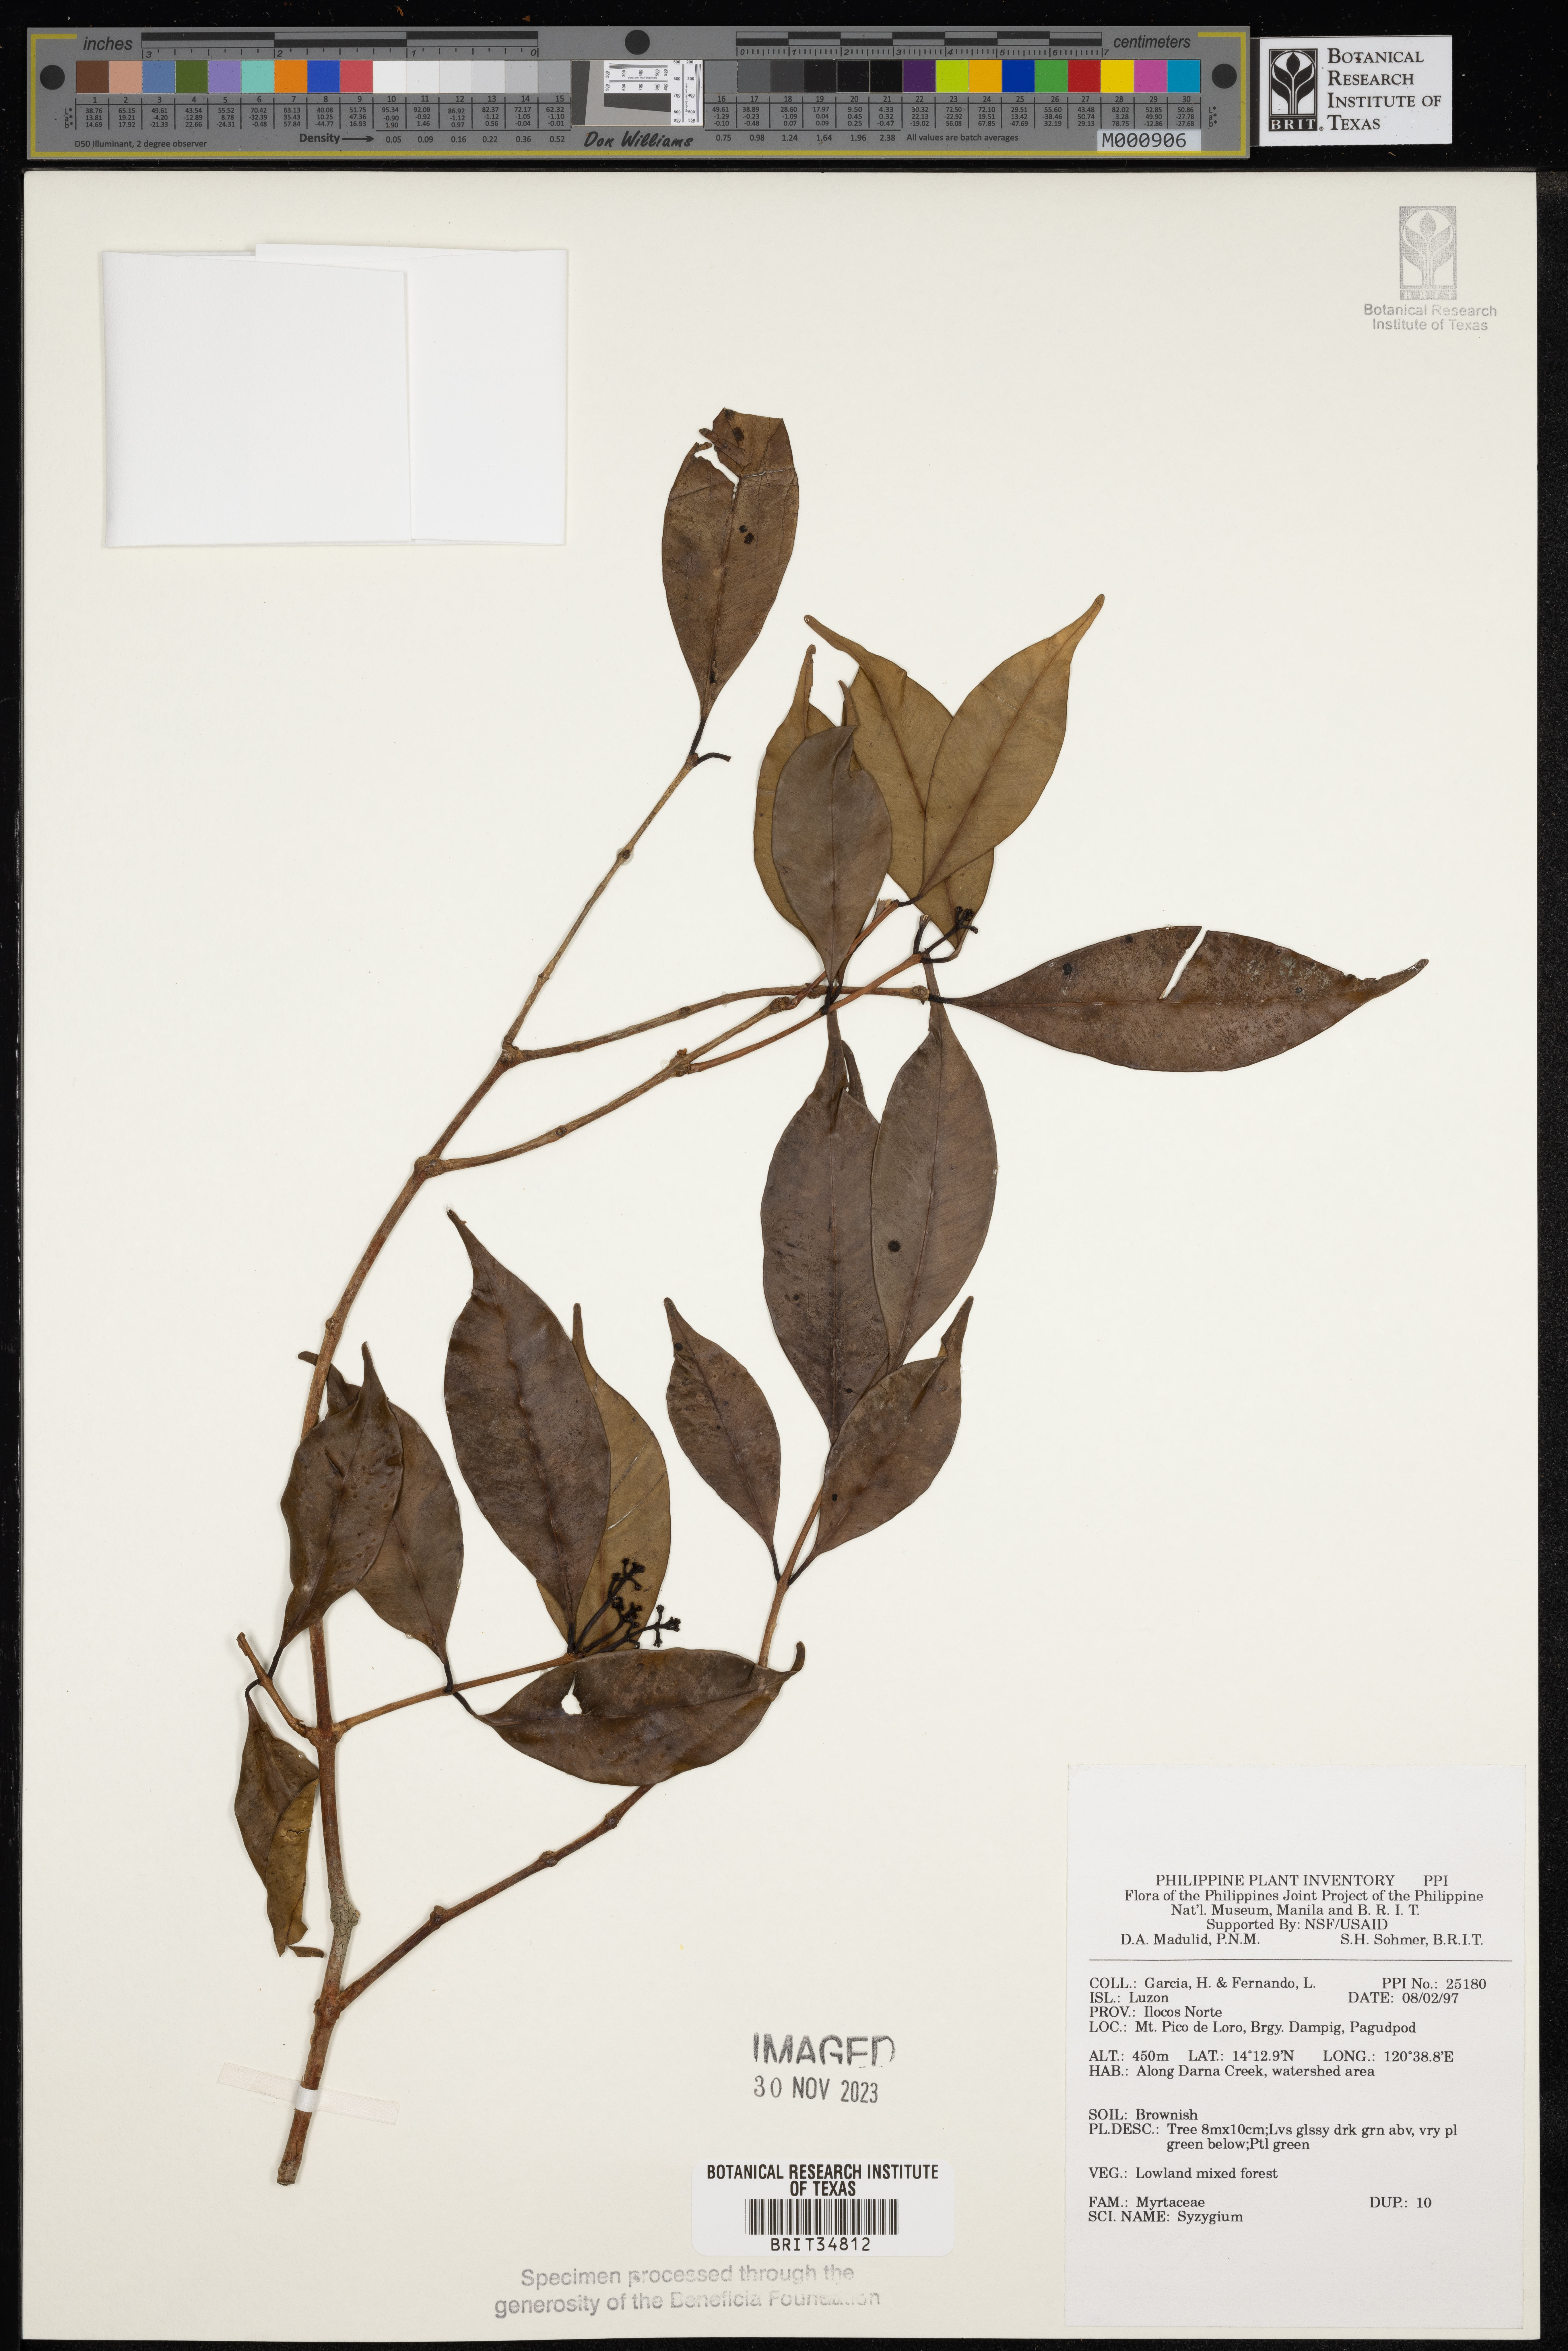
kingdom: Plantae
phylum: Tracheophyta
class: Magnoliopsida
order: Myrtales
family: Myrtaceae
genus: Syzygium
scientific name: Syzygium
